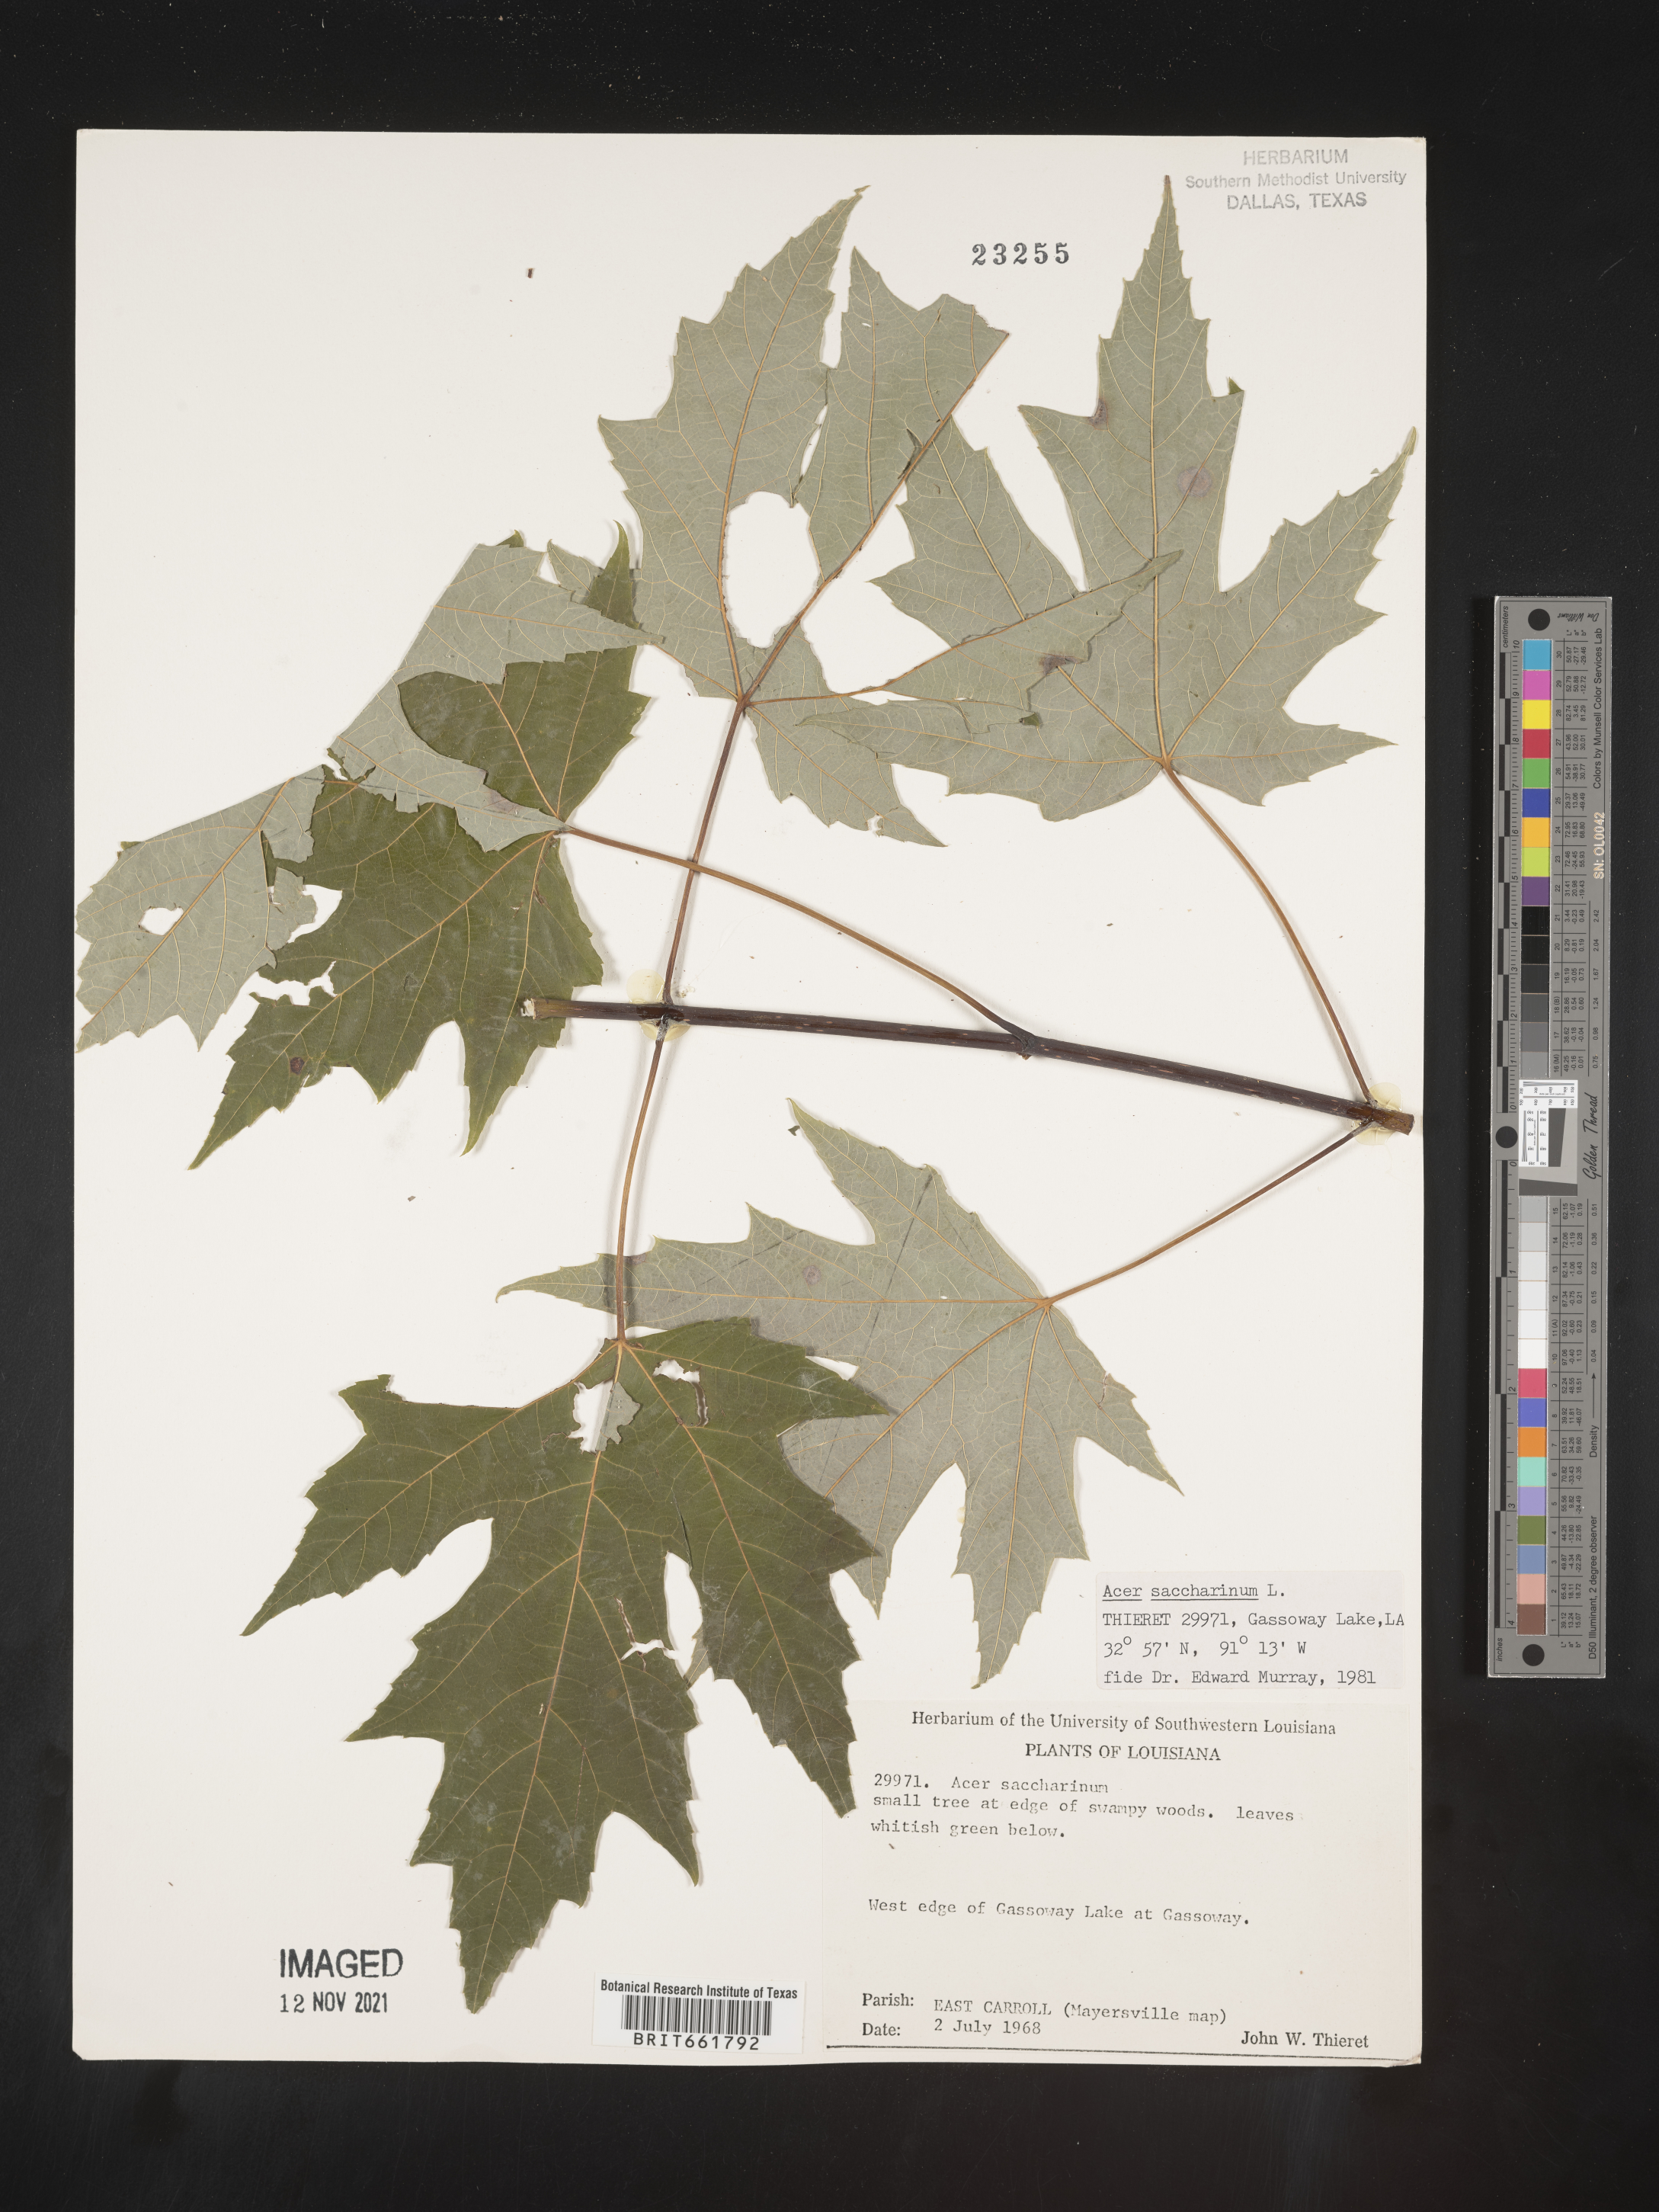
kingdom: Plantae
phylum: Tracheophyta
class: Magnoliopsida
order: Sapindales
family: Sapindaceae
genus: Acer
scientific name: Acer saccharinum
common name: Silver maple
